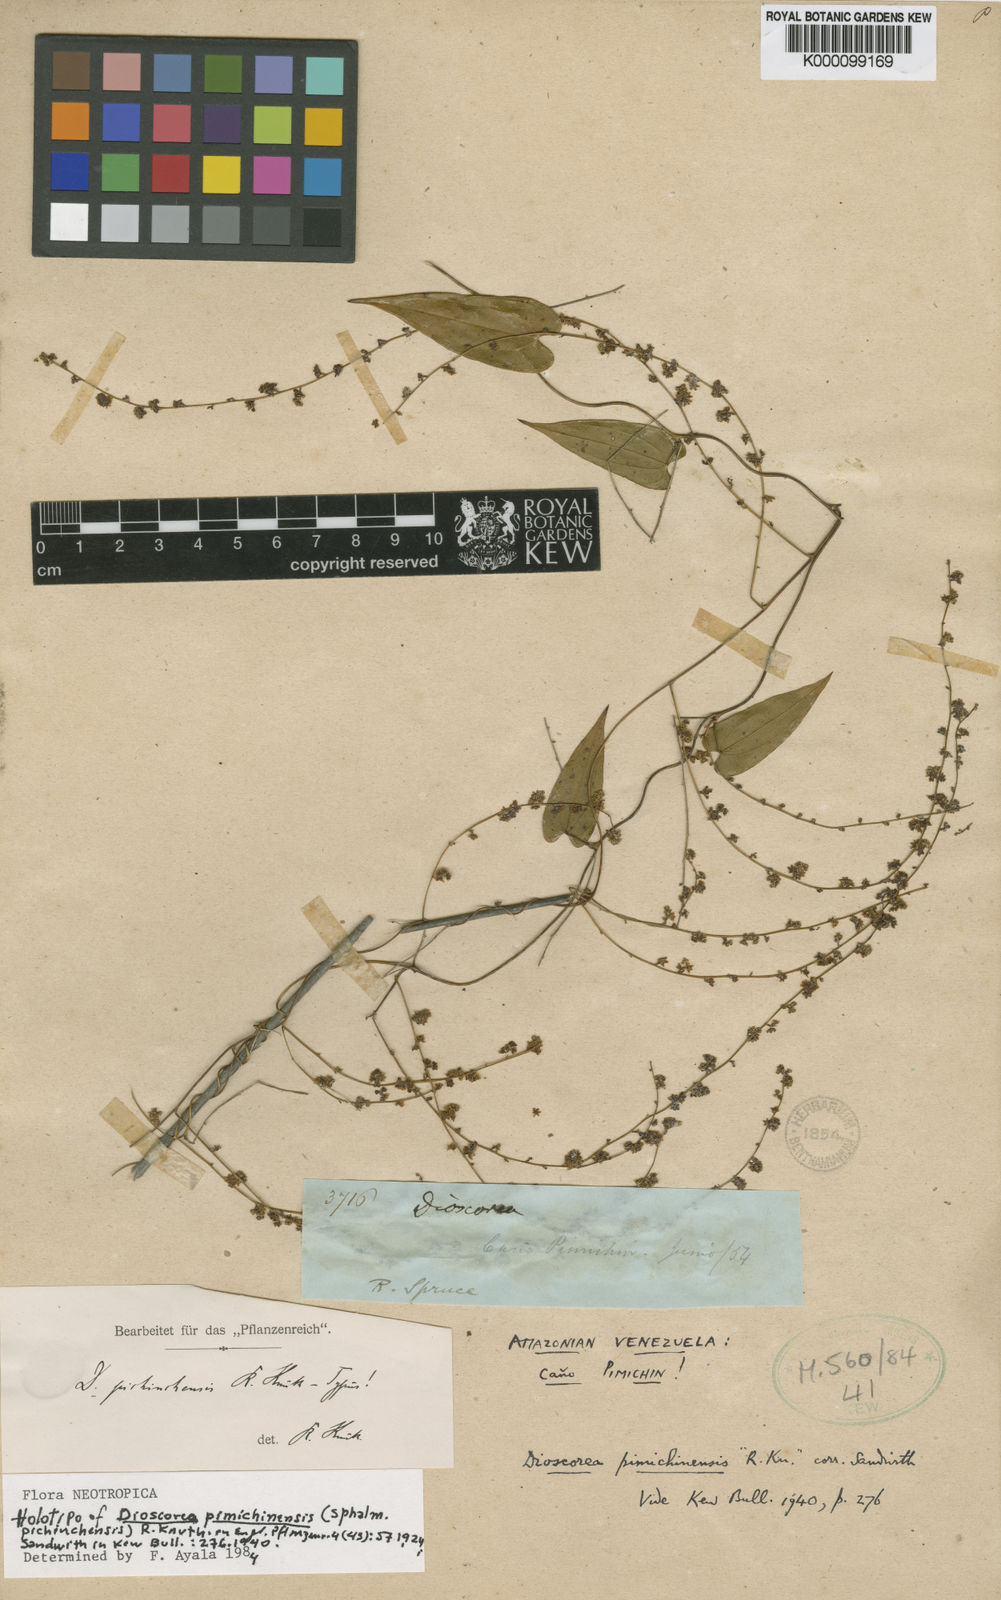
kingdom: Plantae
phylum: Tracheophyta
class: Liliopsida
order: Dioscoreales
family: Dioscoreaceae
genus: Dioscorea
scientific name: Dioscorea
